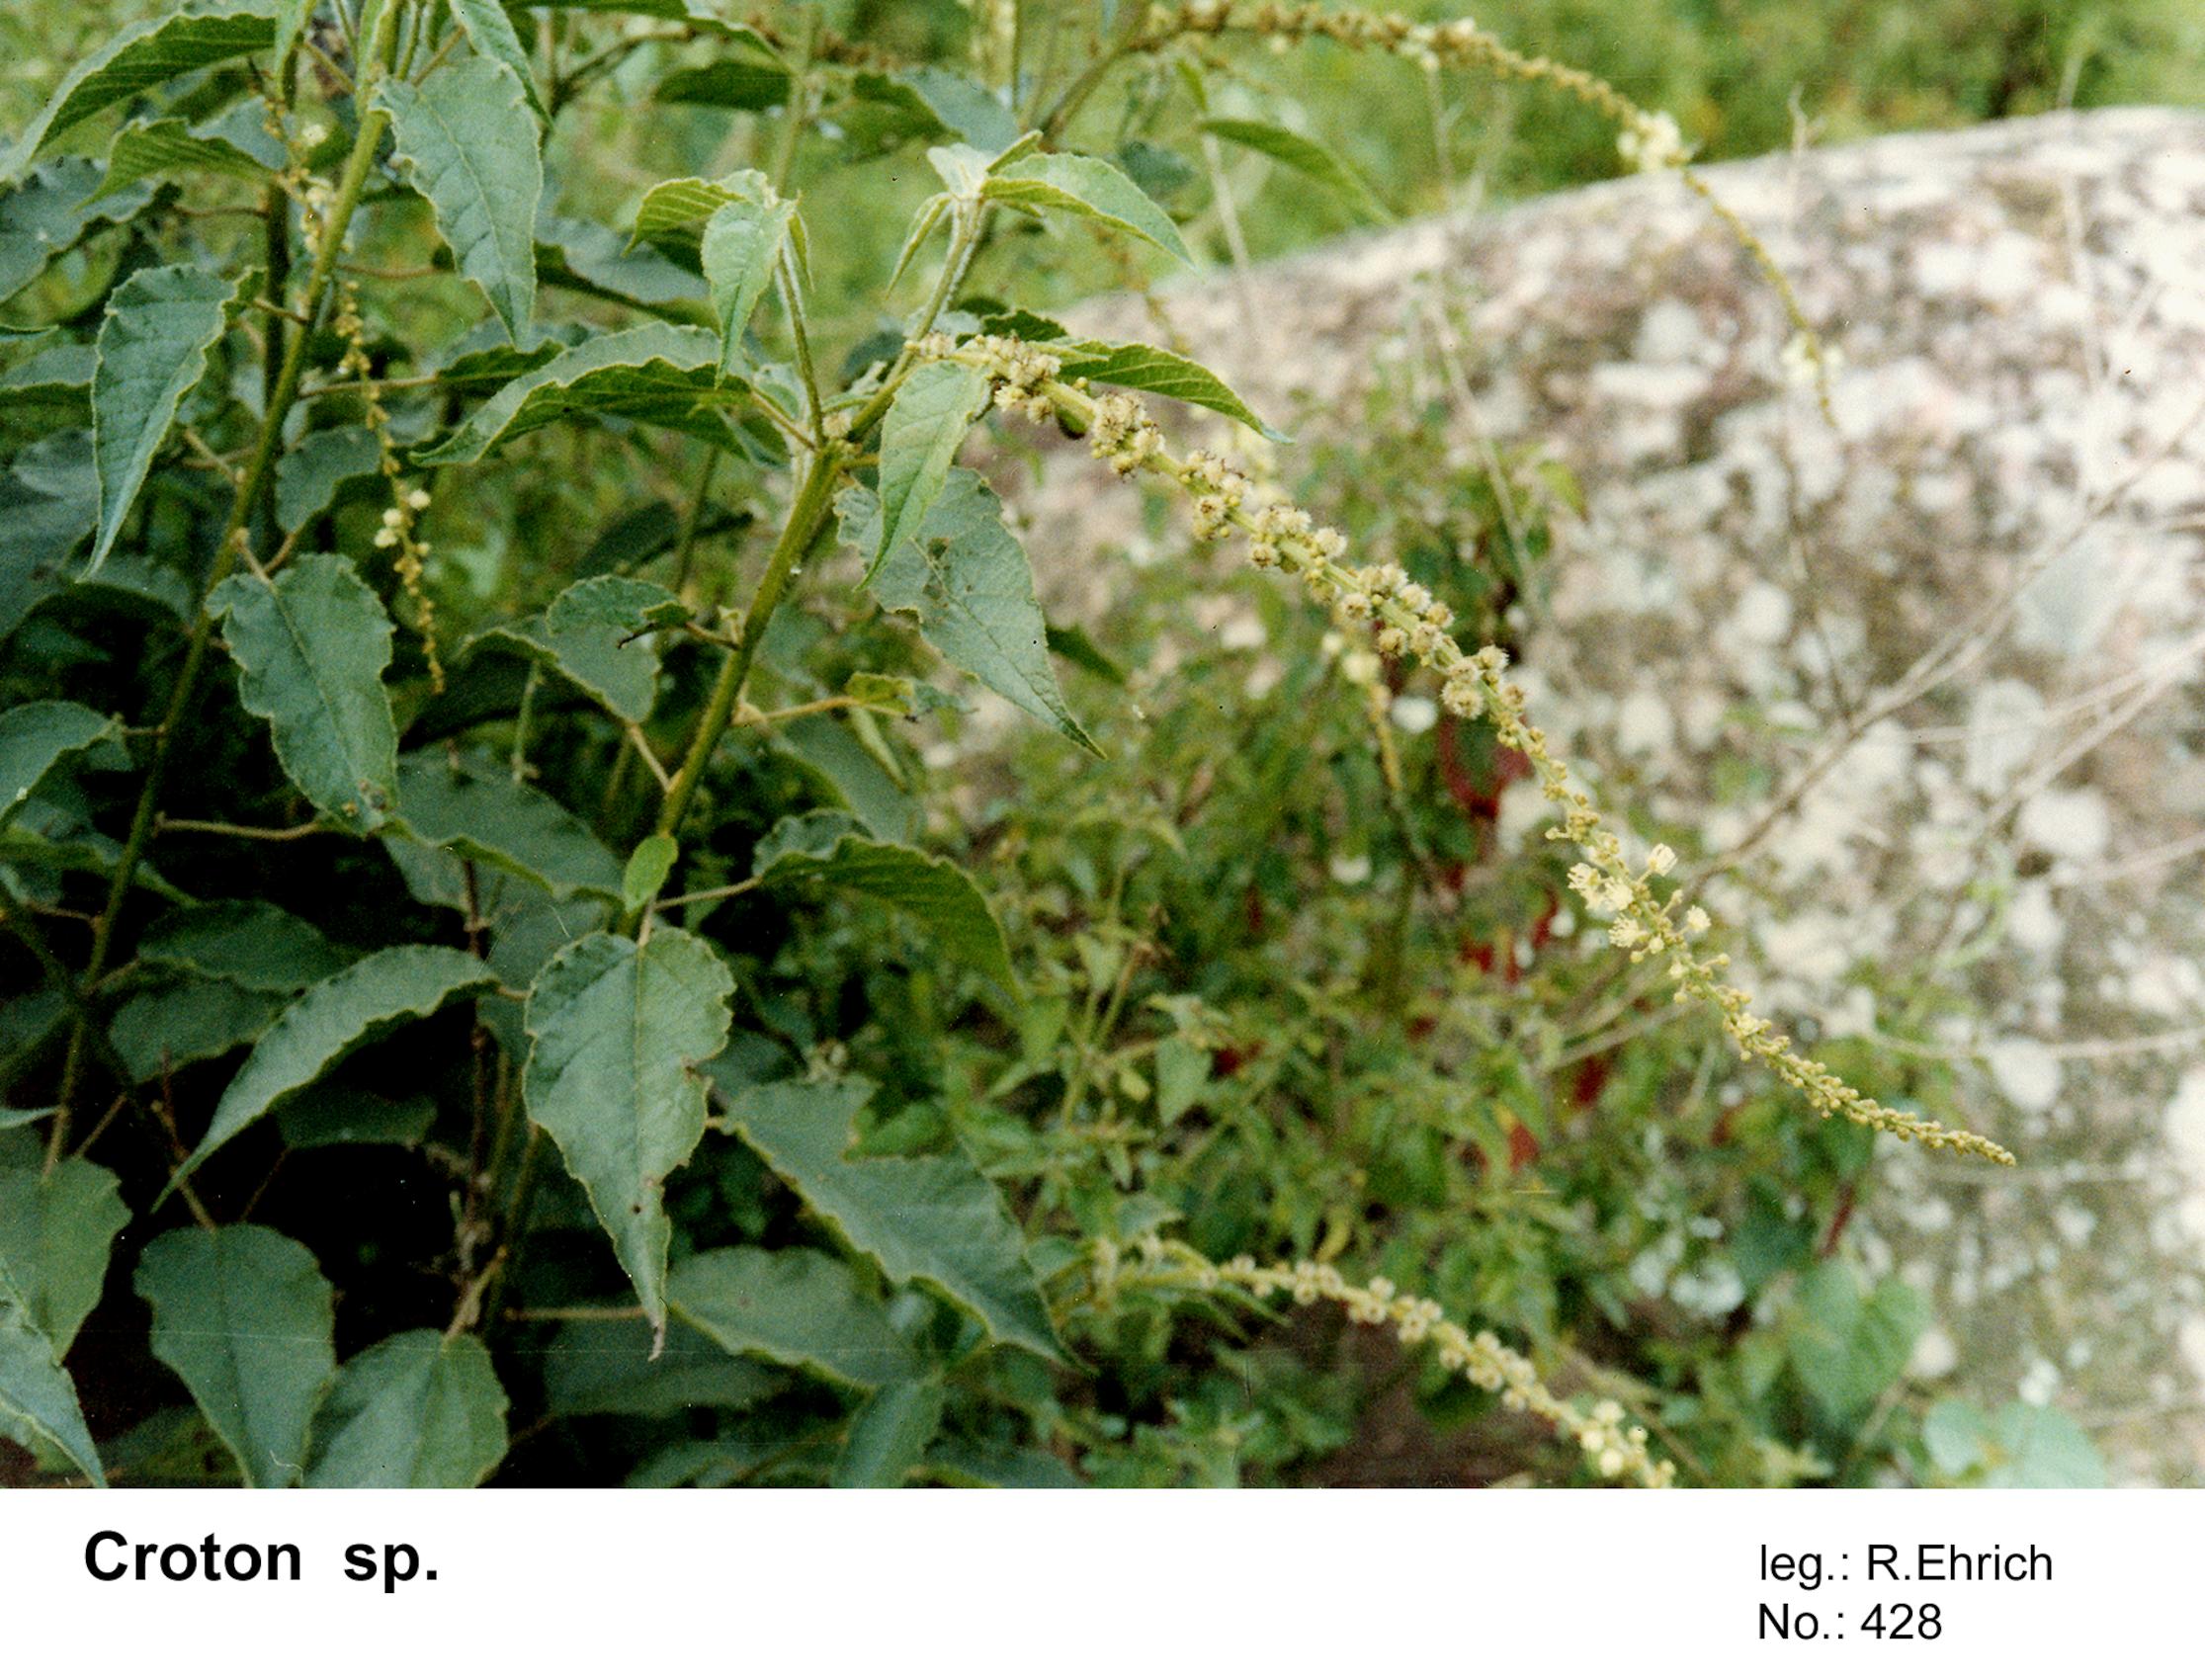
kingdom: Plantae
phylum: Tracheophyta
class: Magnoliopsida
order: Malpighiales
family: Euphorbiaceae
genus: Croton
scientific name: Croton
